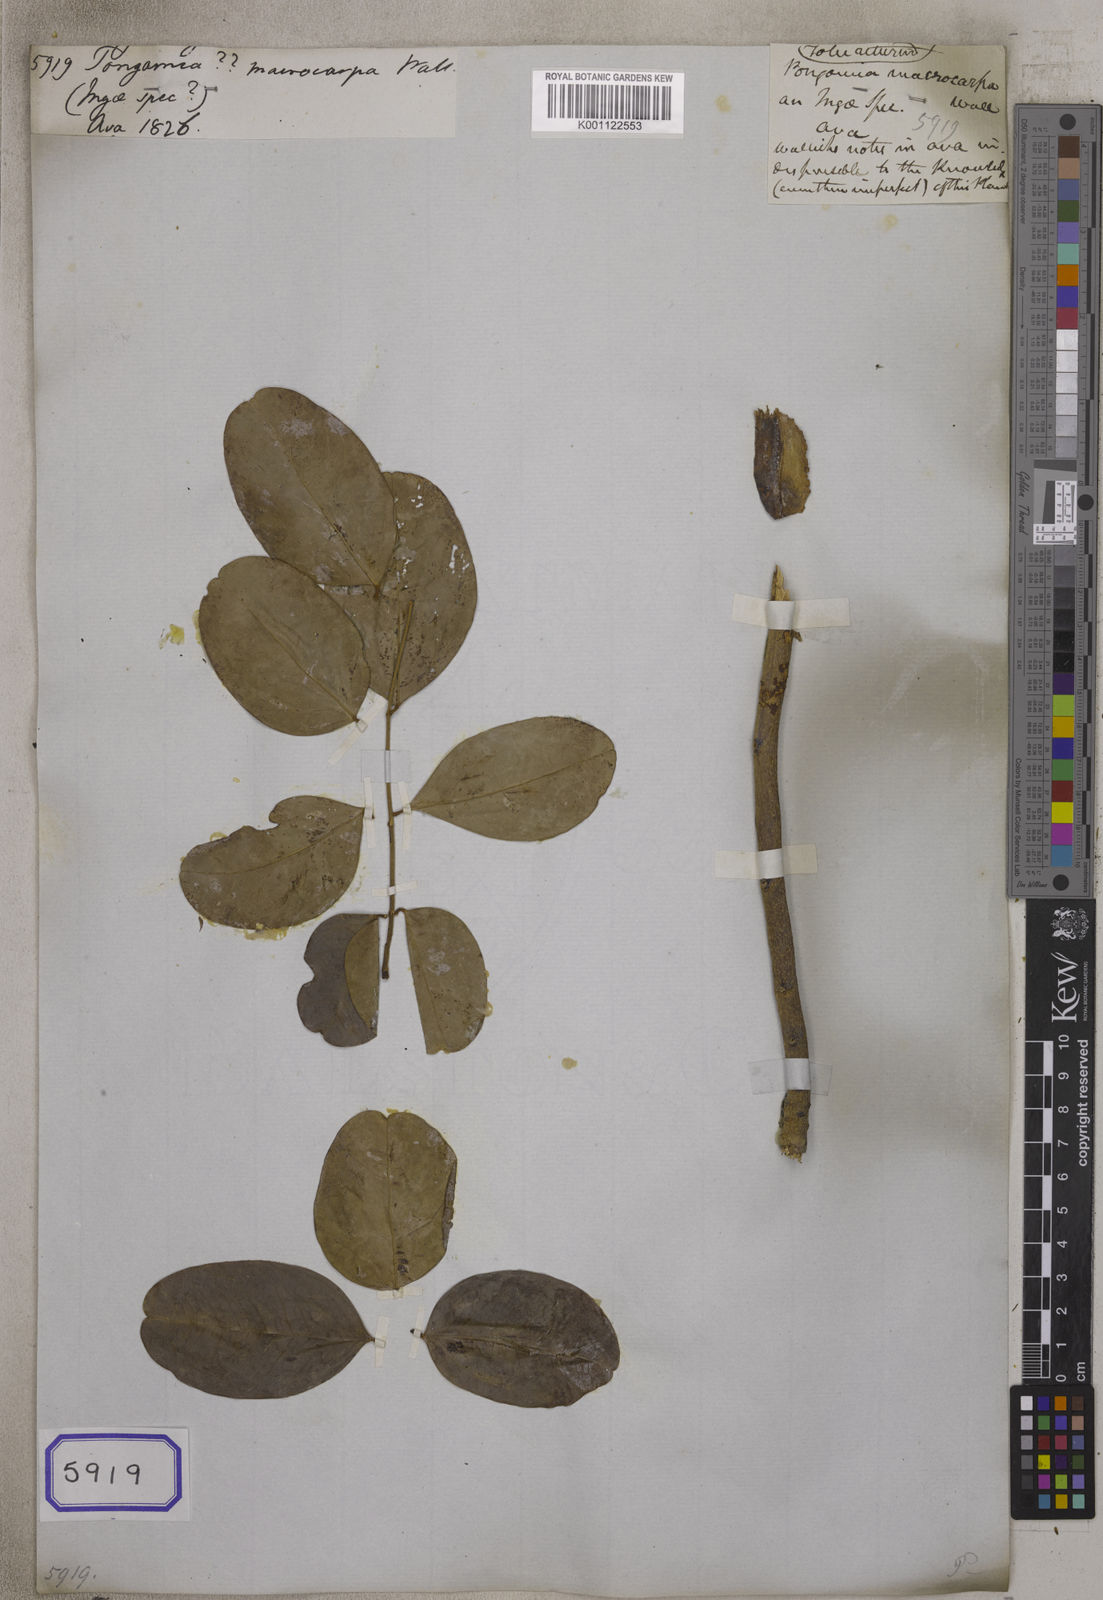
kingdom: Plantae
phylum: Tracheophyta
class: Magnoliopsida
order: Fabales
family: Fabaceae
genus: Pongamia
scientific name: Pongamia
